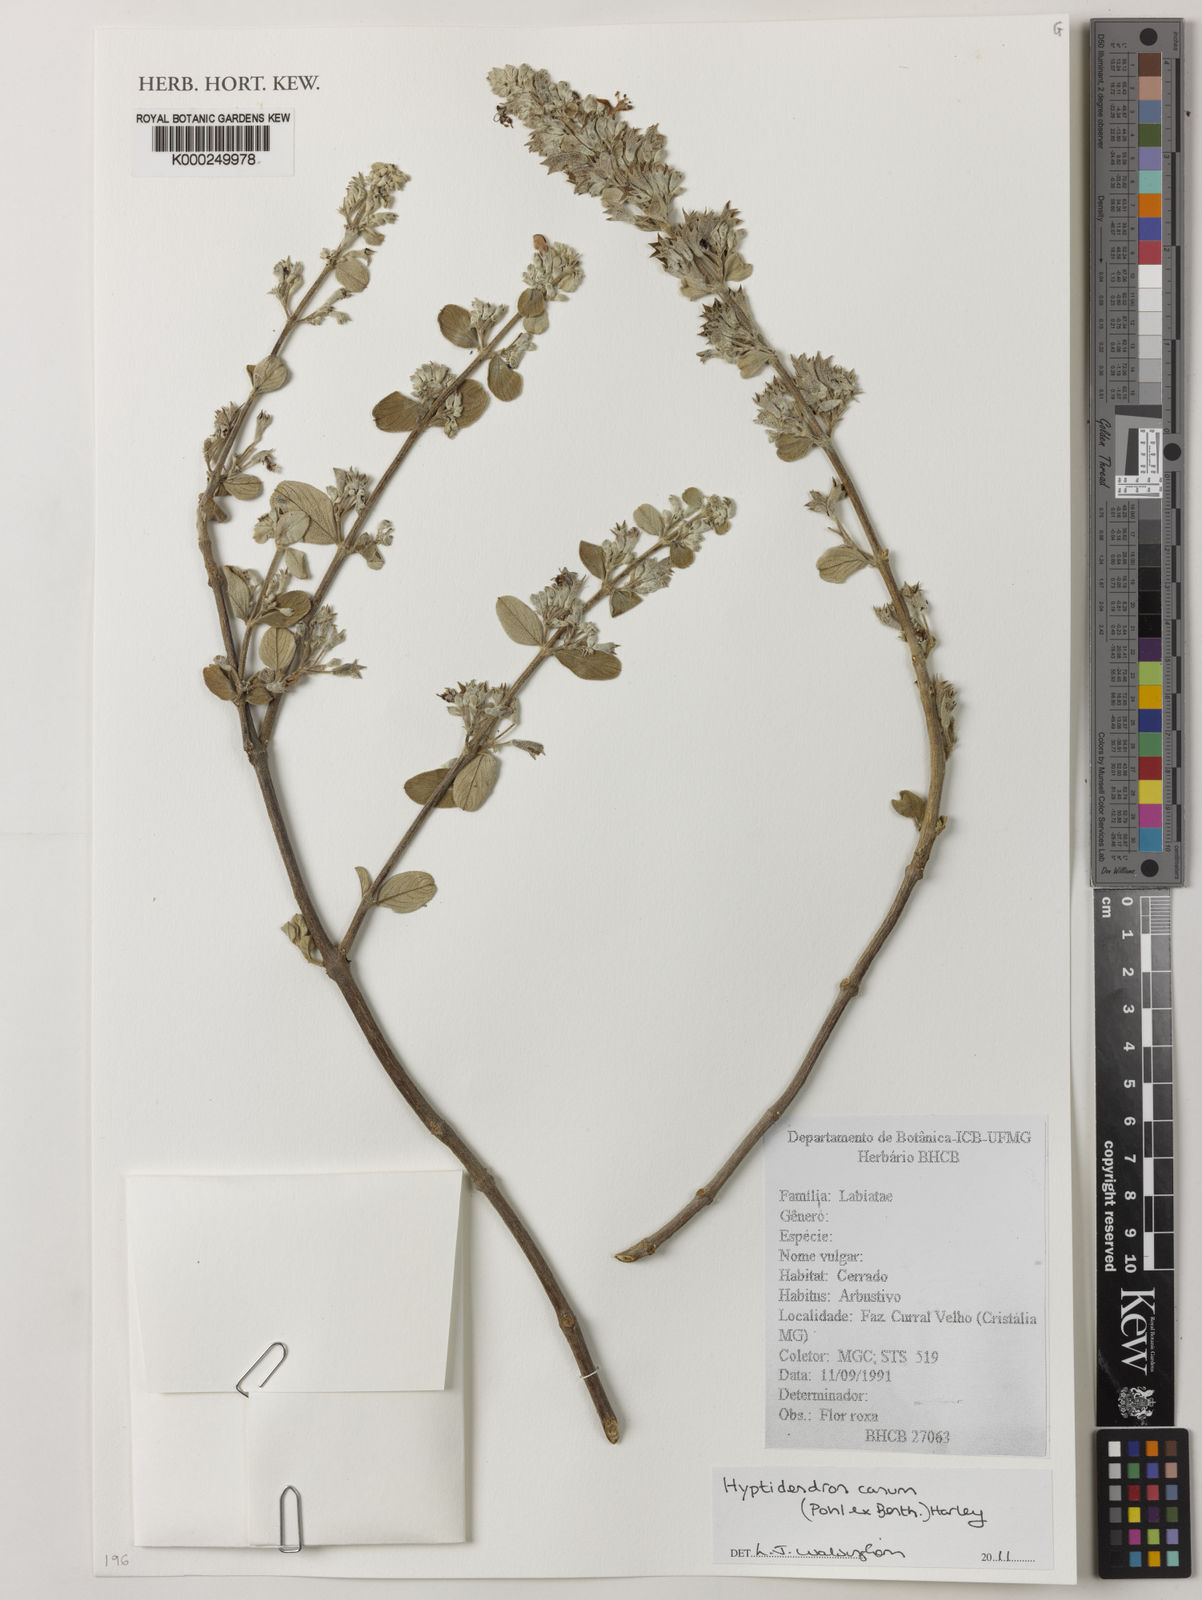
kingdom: Plantae
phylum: Tracheophyta
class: Magnoliopsida
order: Lamiales
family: Lamiaceae
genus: Hyptidendron
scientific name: Hyptidendron canum
